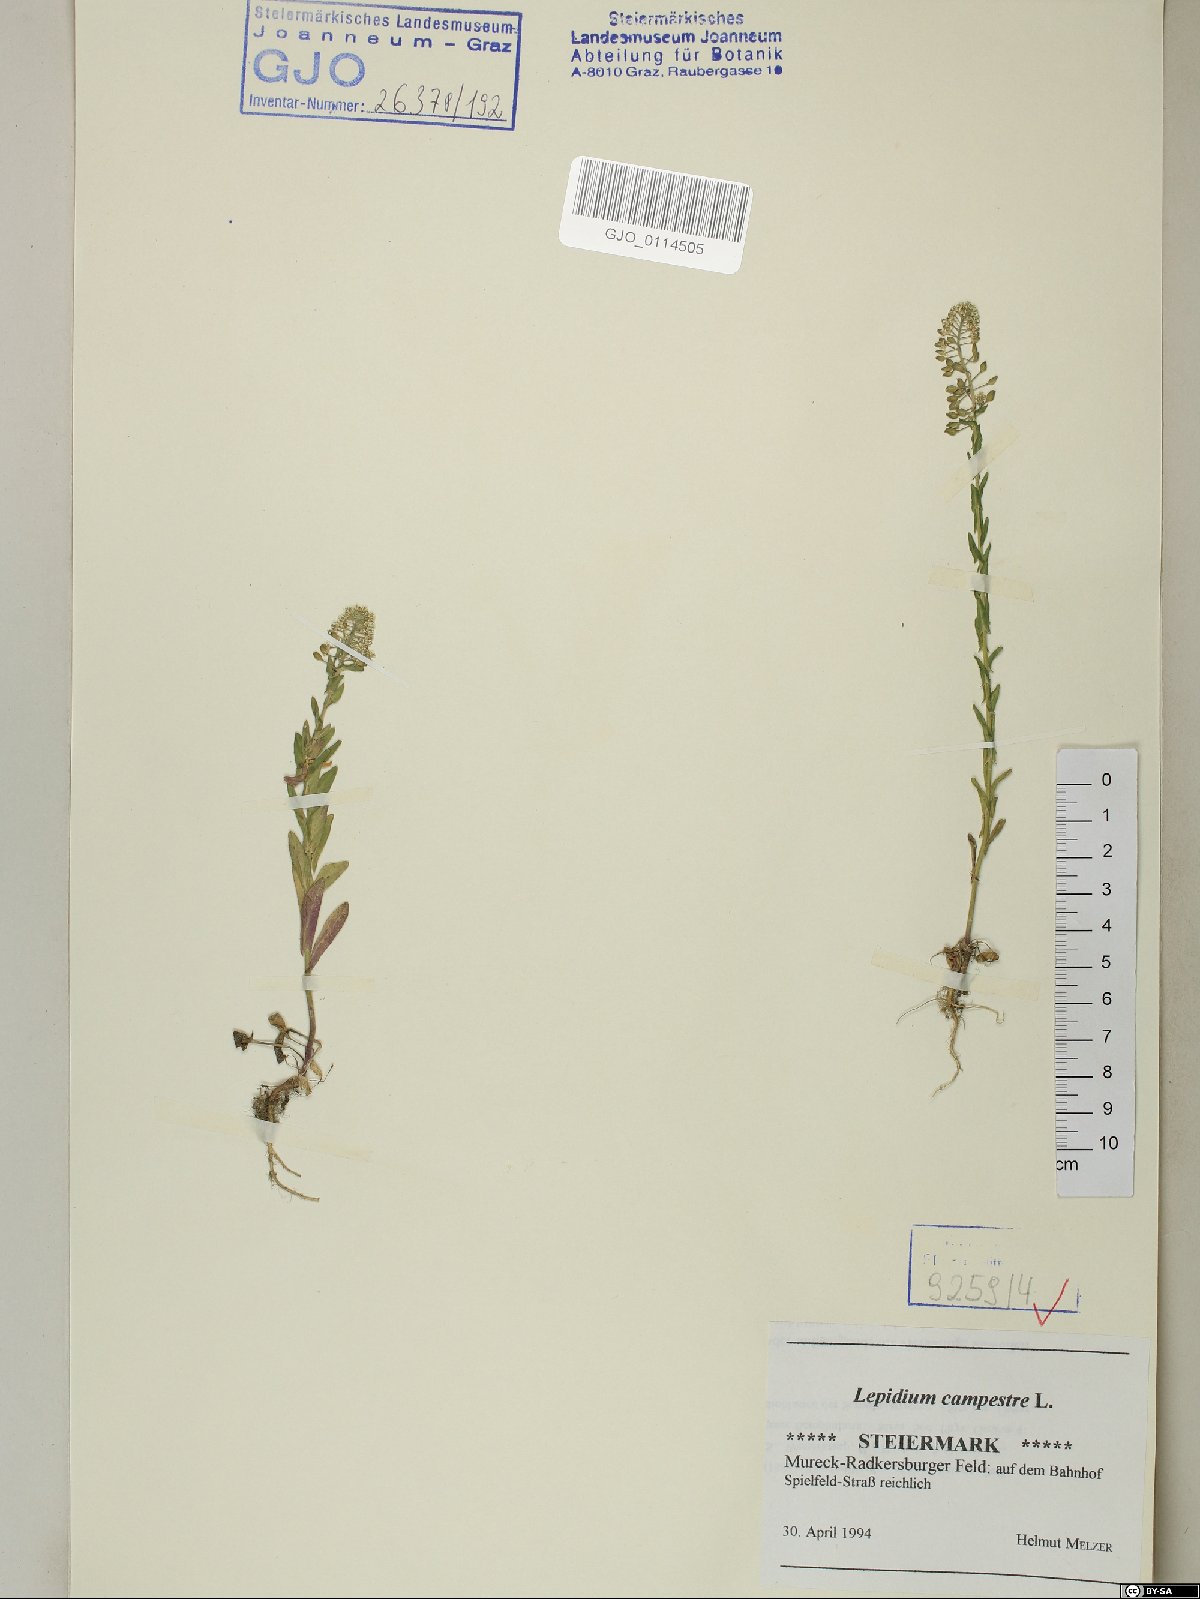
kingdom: Plantae
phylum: Tracheophyta
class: Magnoliopsida
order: Brassicales
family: Brassicaceae
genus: Lepidium
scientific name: Lepidium campestre
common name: Field pepperwort
